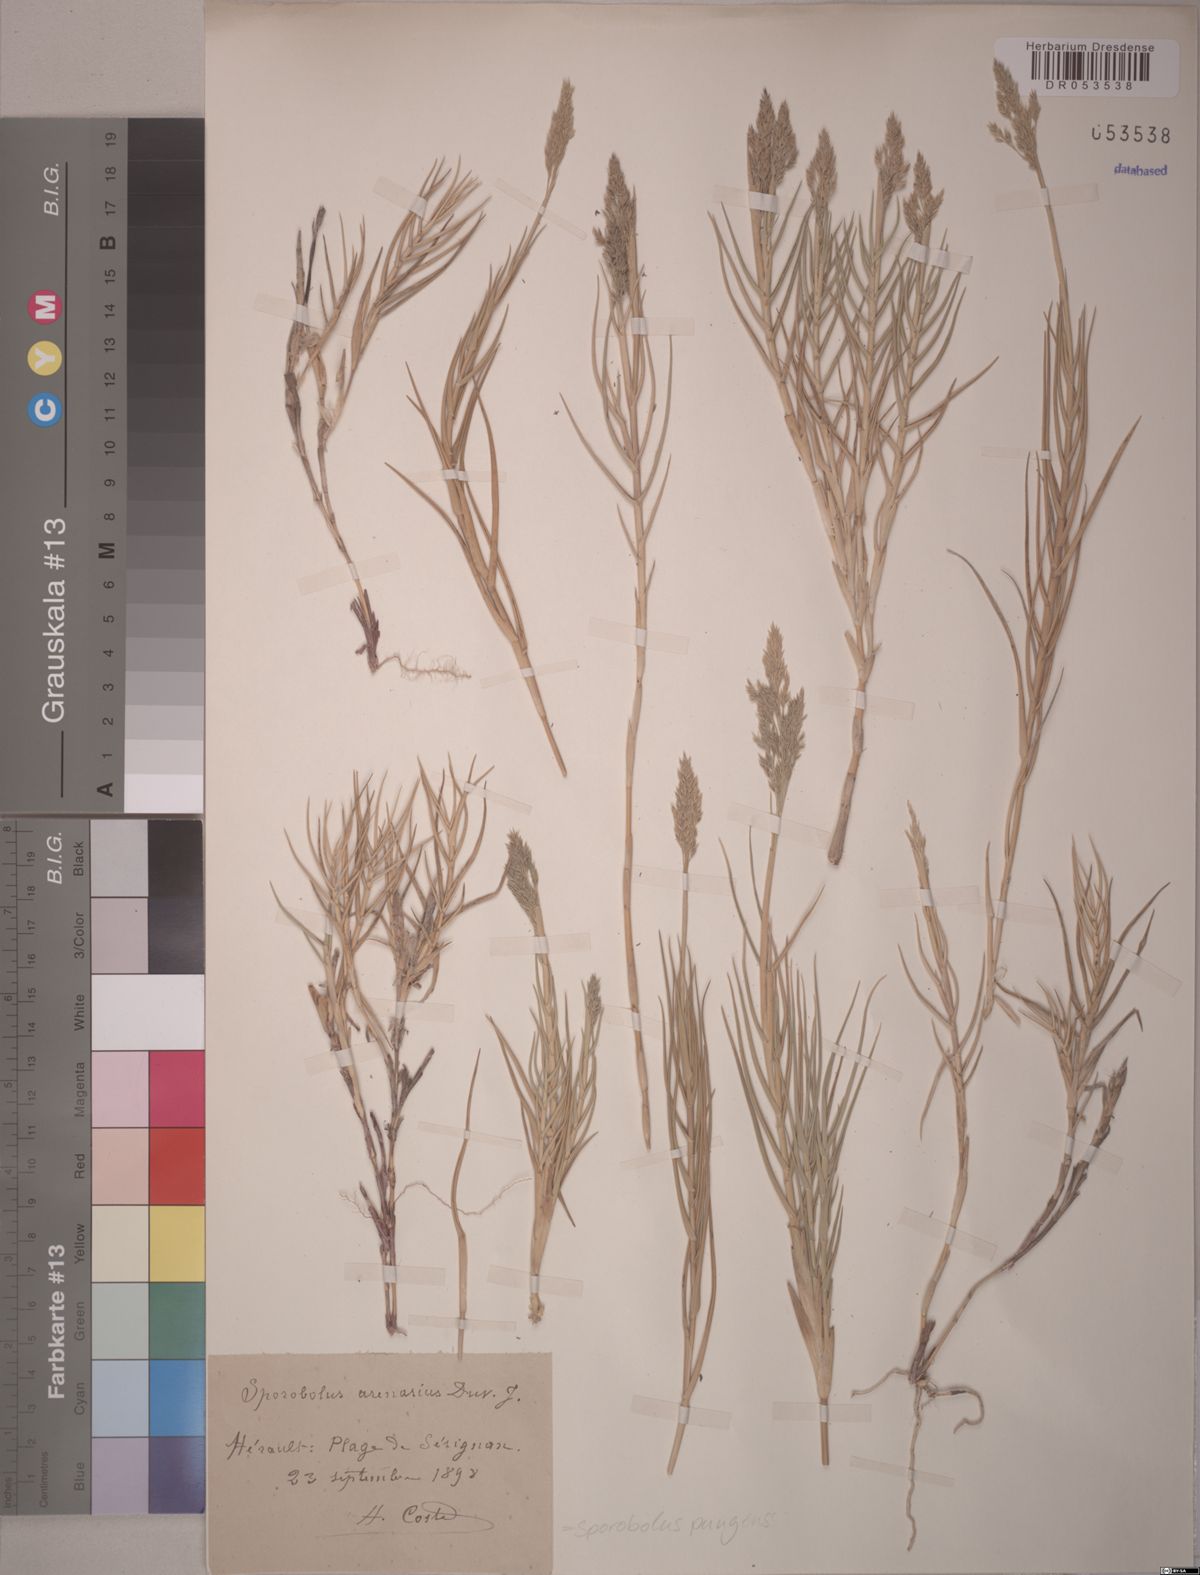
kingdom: Plantae
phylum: Tracheophyta
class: Liliopsida
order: Poales
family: Poaceae
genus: Sporobolus
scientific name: Sporobolus pungens
